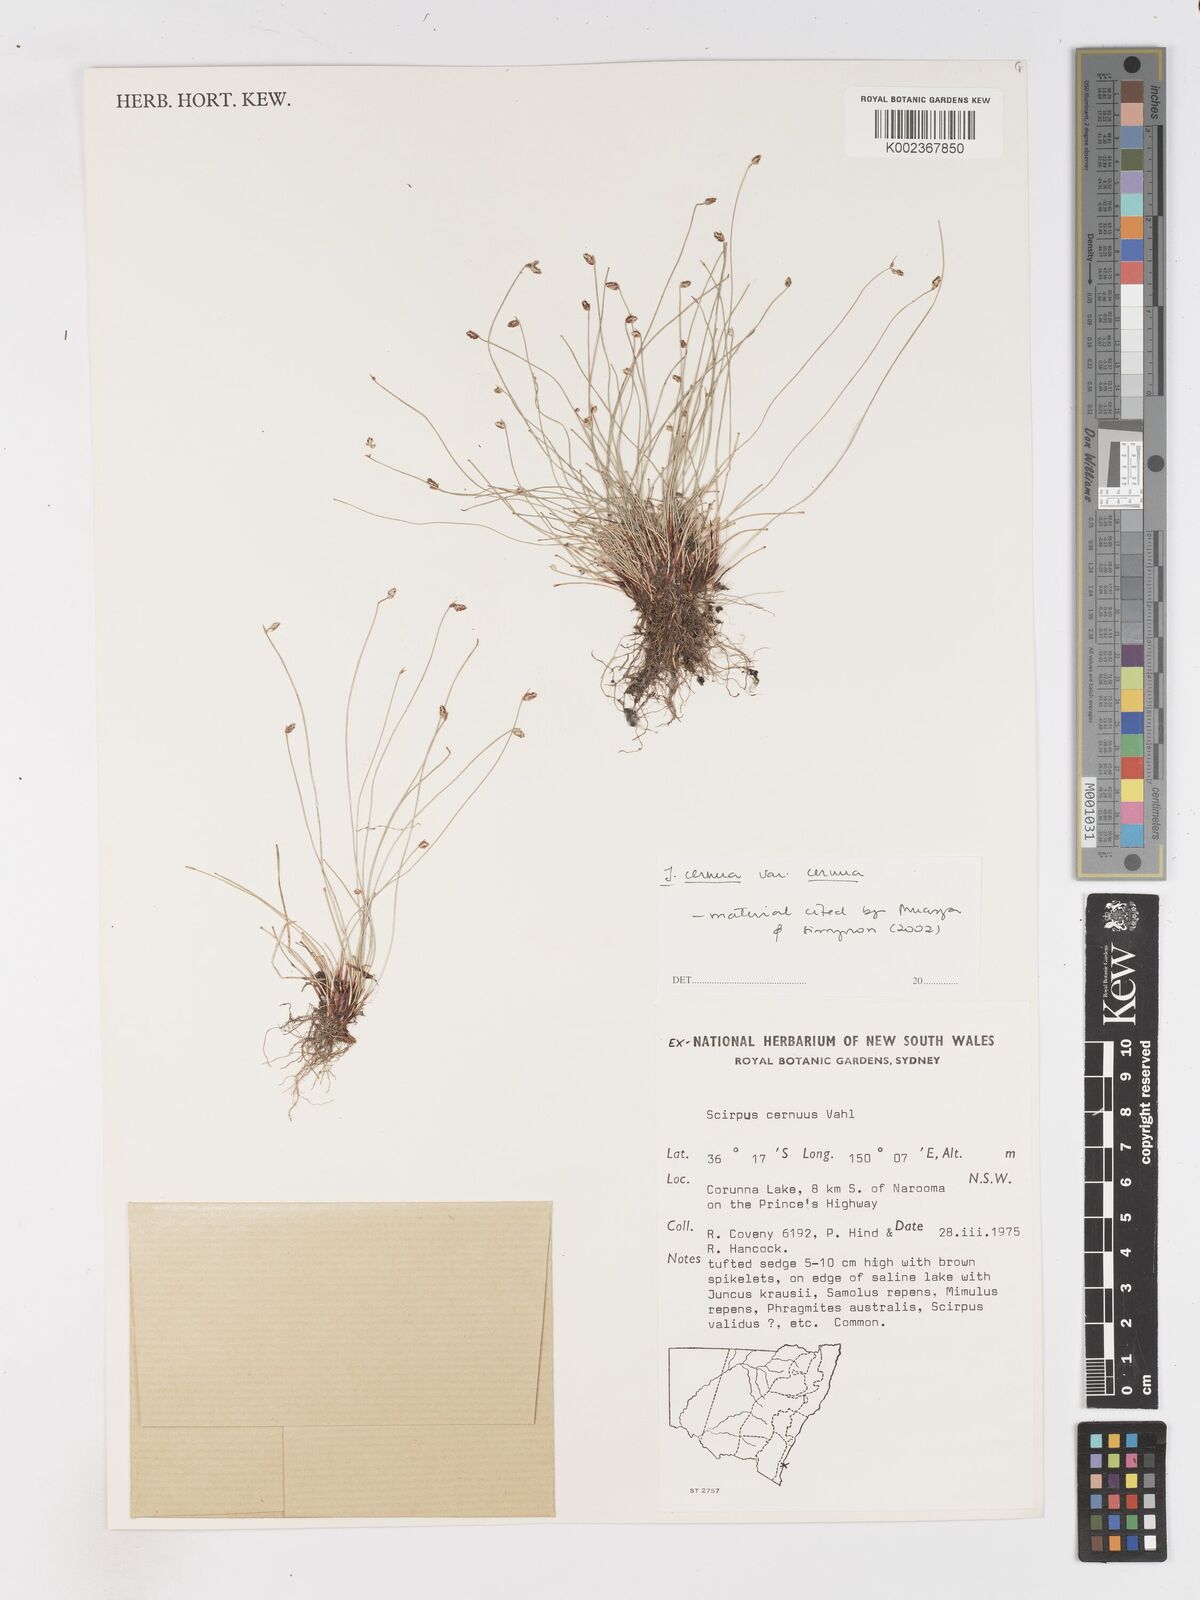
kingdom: Plantae
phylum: Tracheophyta
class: Liliopsida
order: Poales
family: Cyperaceae
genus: Isolepis
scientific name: Isolepis cernua
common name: Slender club-rush
